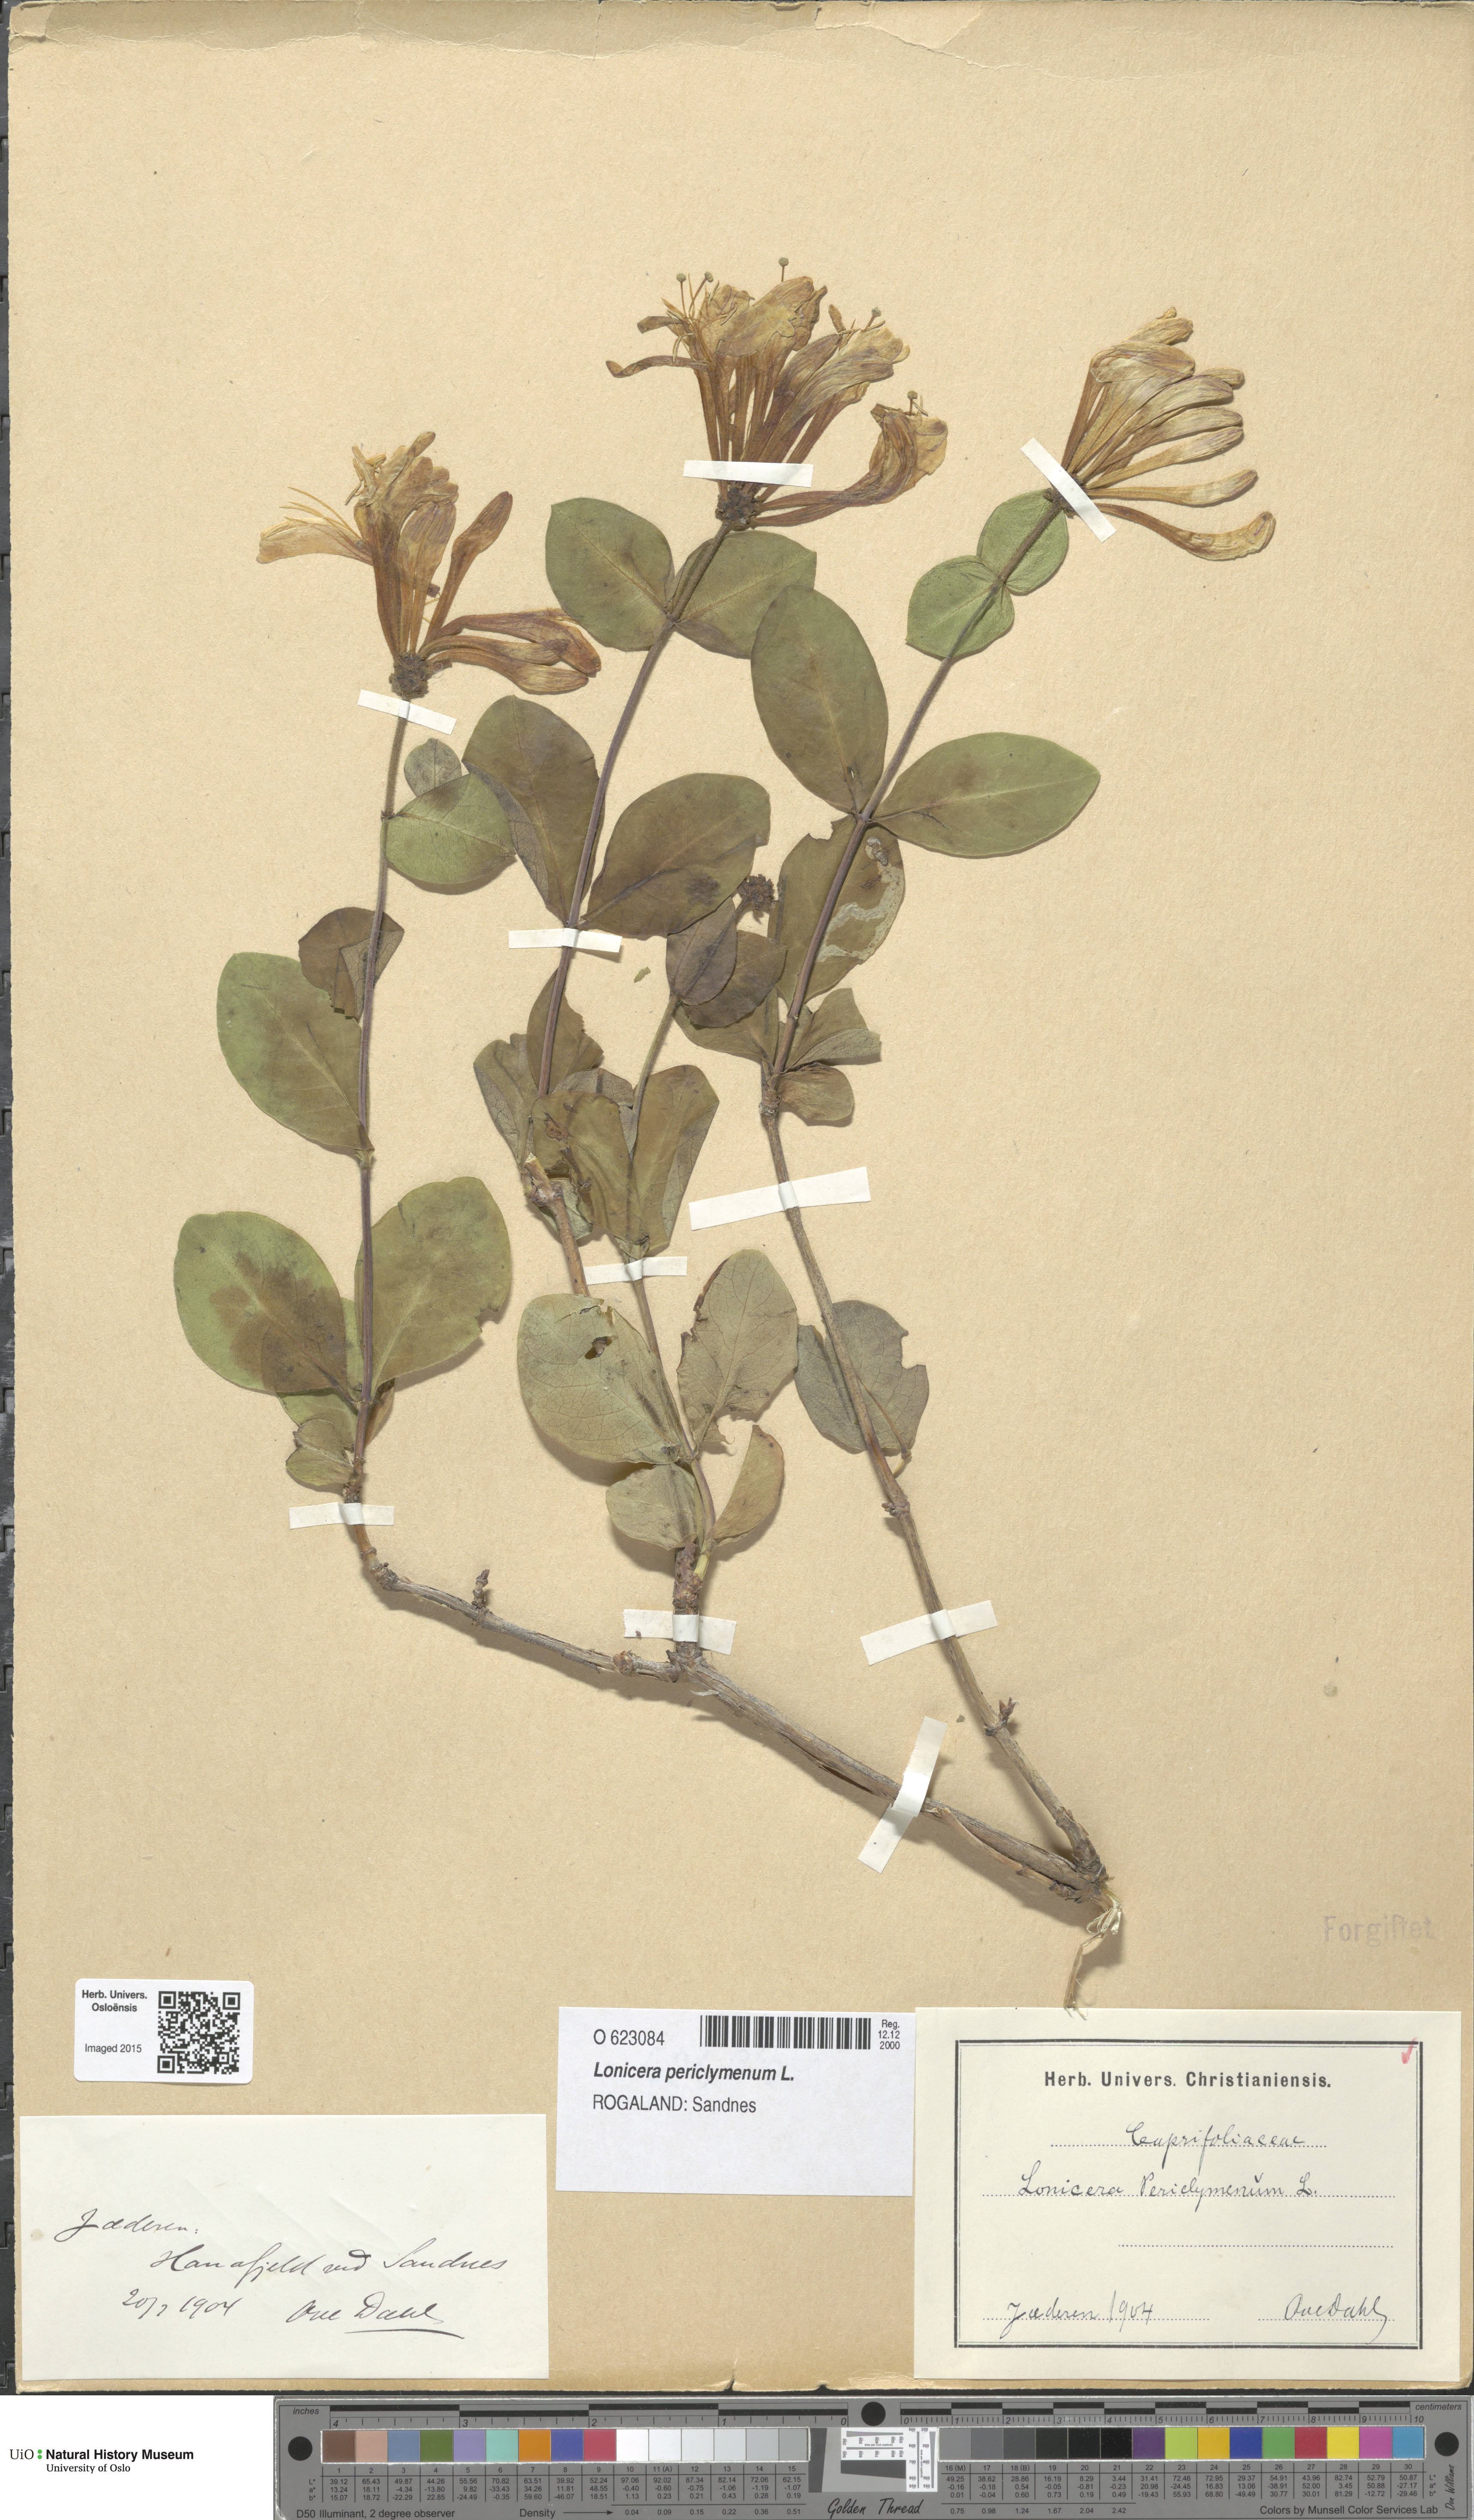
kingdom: Plantae
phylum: Tracheophyta
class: Magnoliopsida
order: Dipsacales
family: Caprifoliaceae
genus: Lonicera
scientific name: Lonicera periclymenum
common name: European honeysuckle
